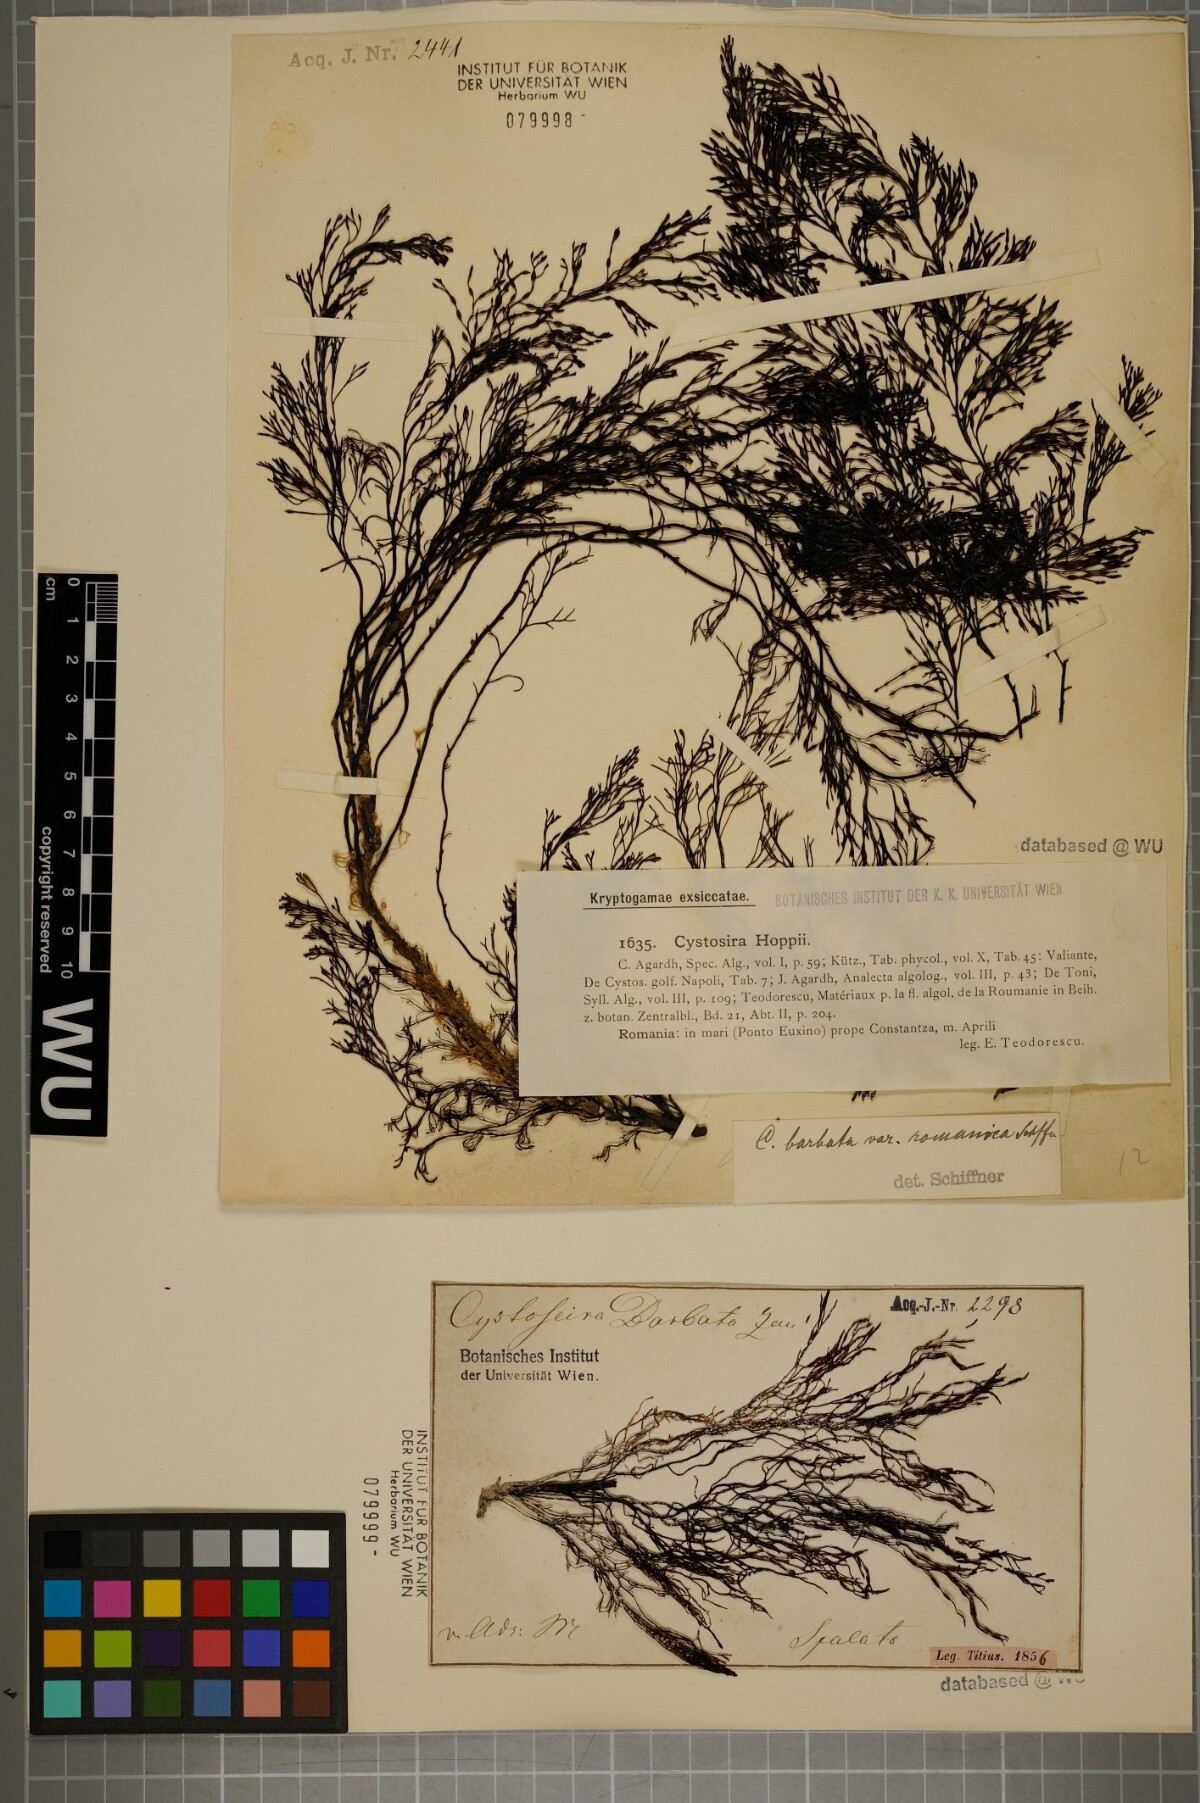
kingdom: Chromista
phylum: Ochrophyta
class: Phaeophyceae
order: Fucales
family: Sargassaceae
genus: Cystoseira
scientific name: Cystoseira Gongolaria barbata
